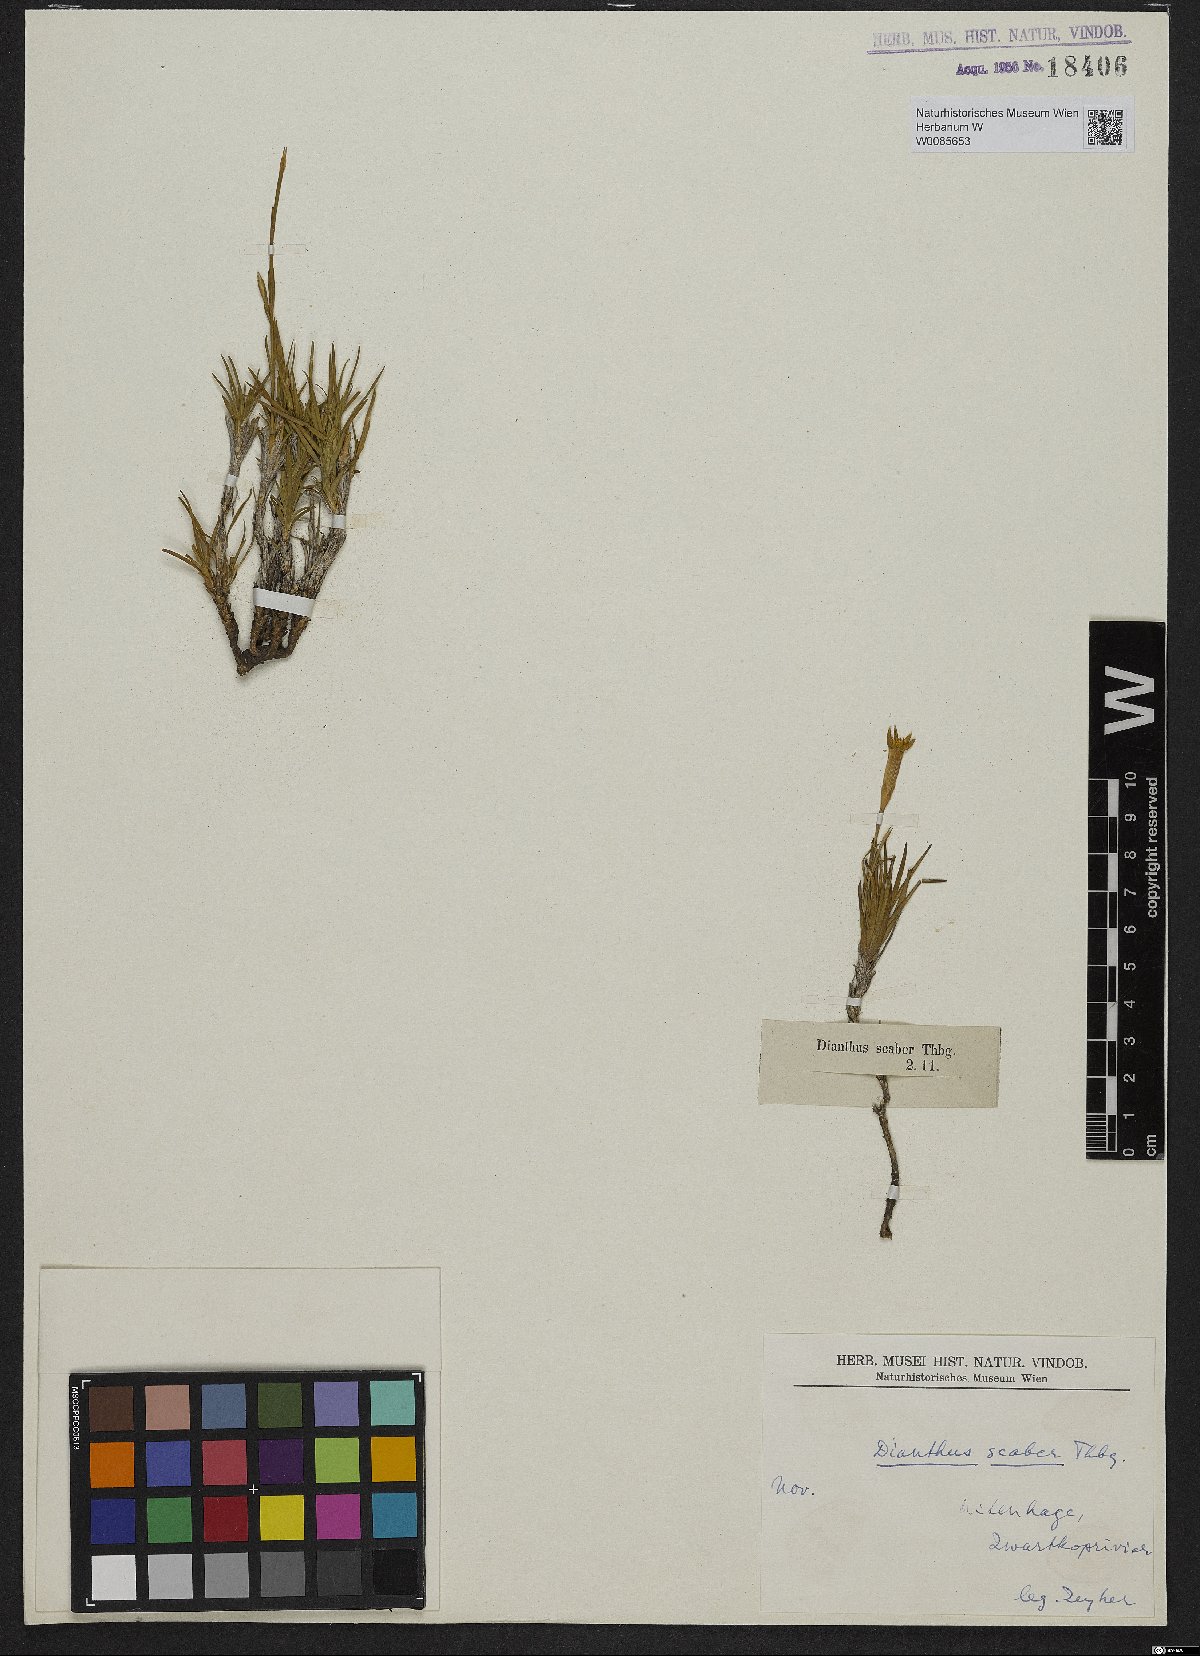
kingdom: Plantae
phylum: Tracheophyta
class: Magnoliopsida
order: Caryophyllales
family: Caryophyllaceae
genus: Dianthus
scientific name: Dianthus thunbergii
